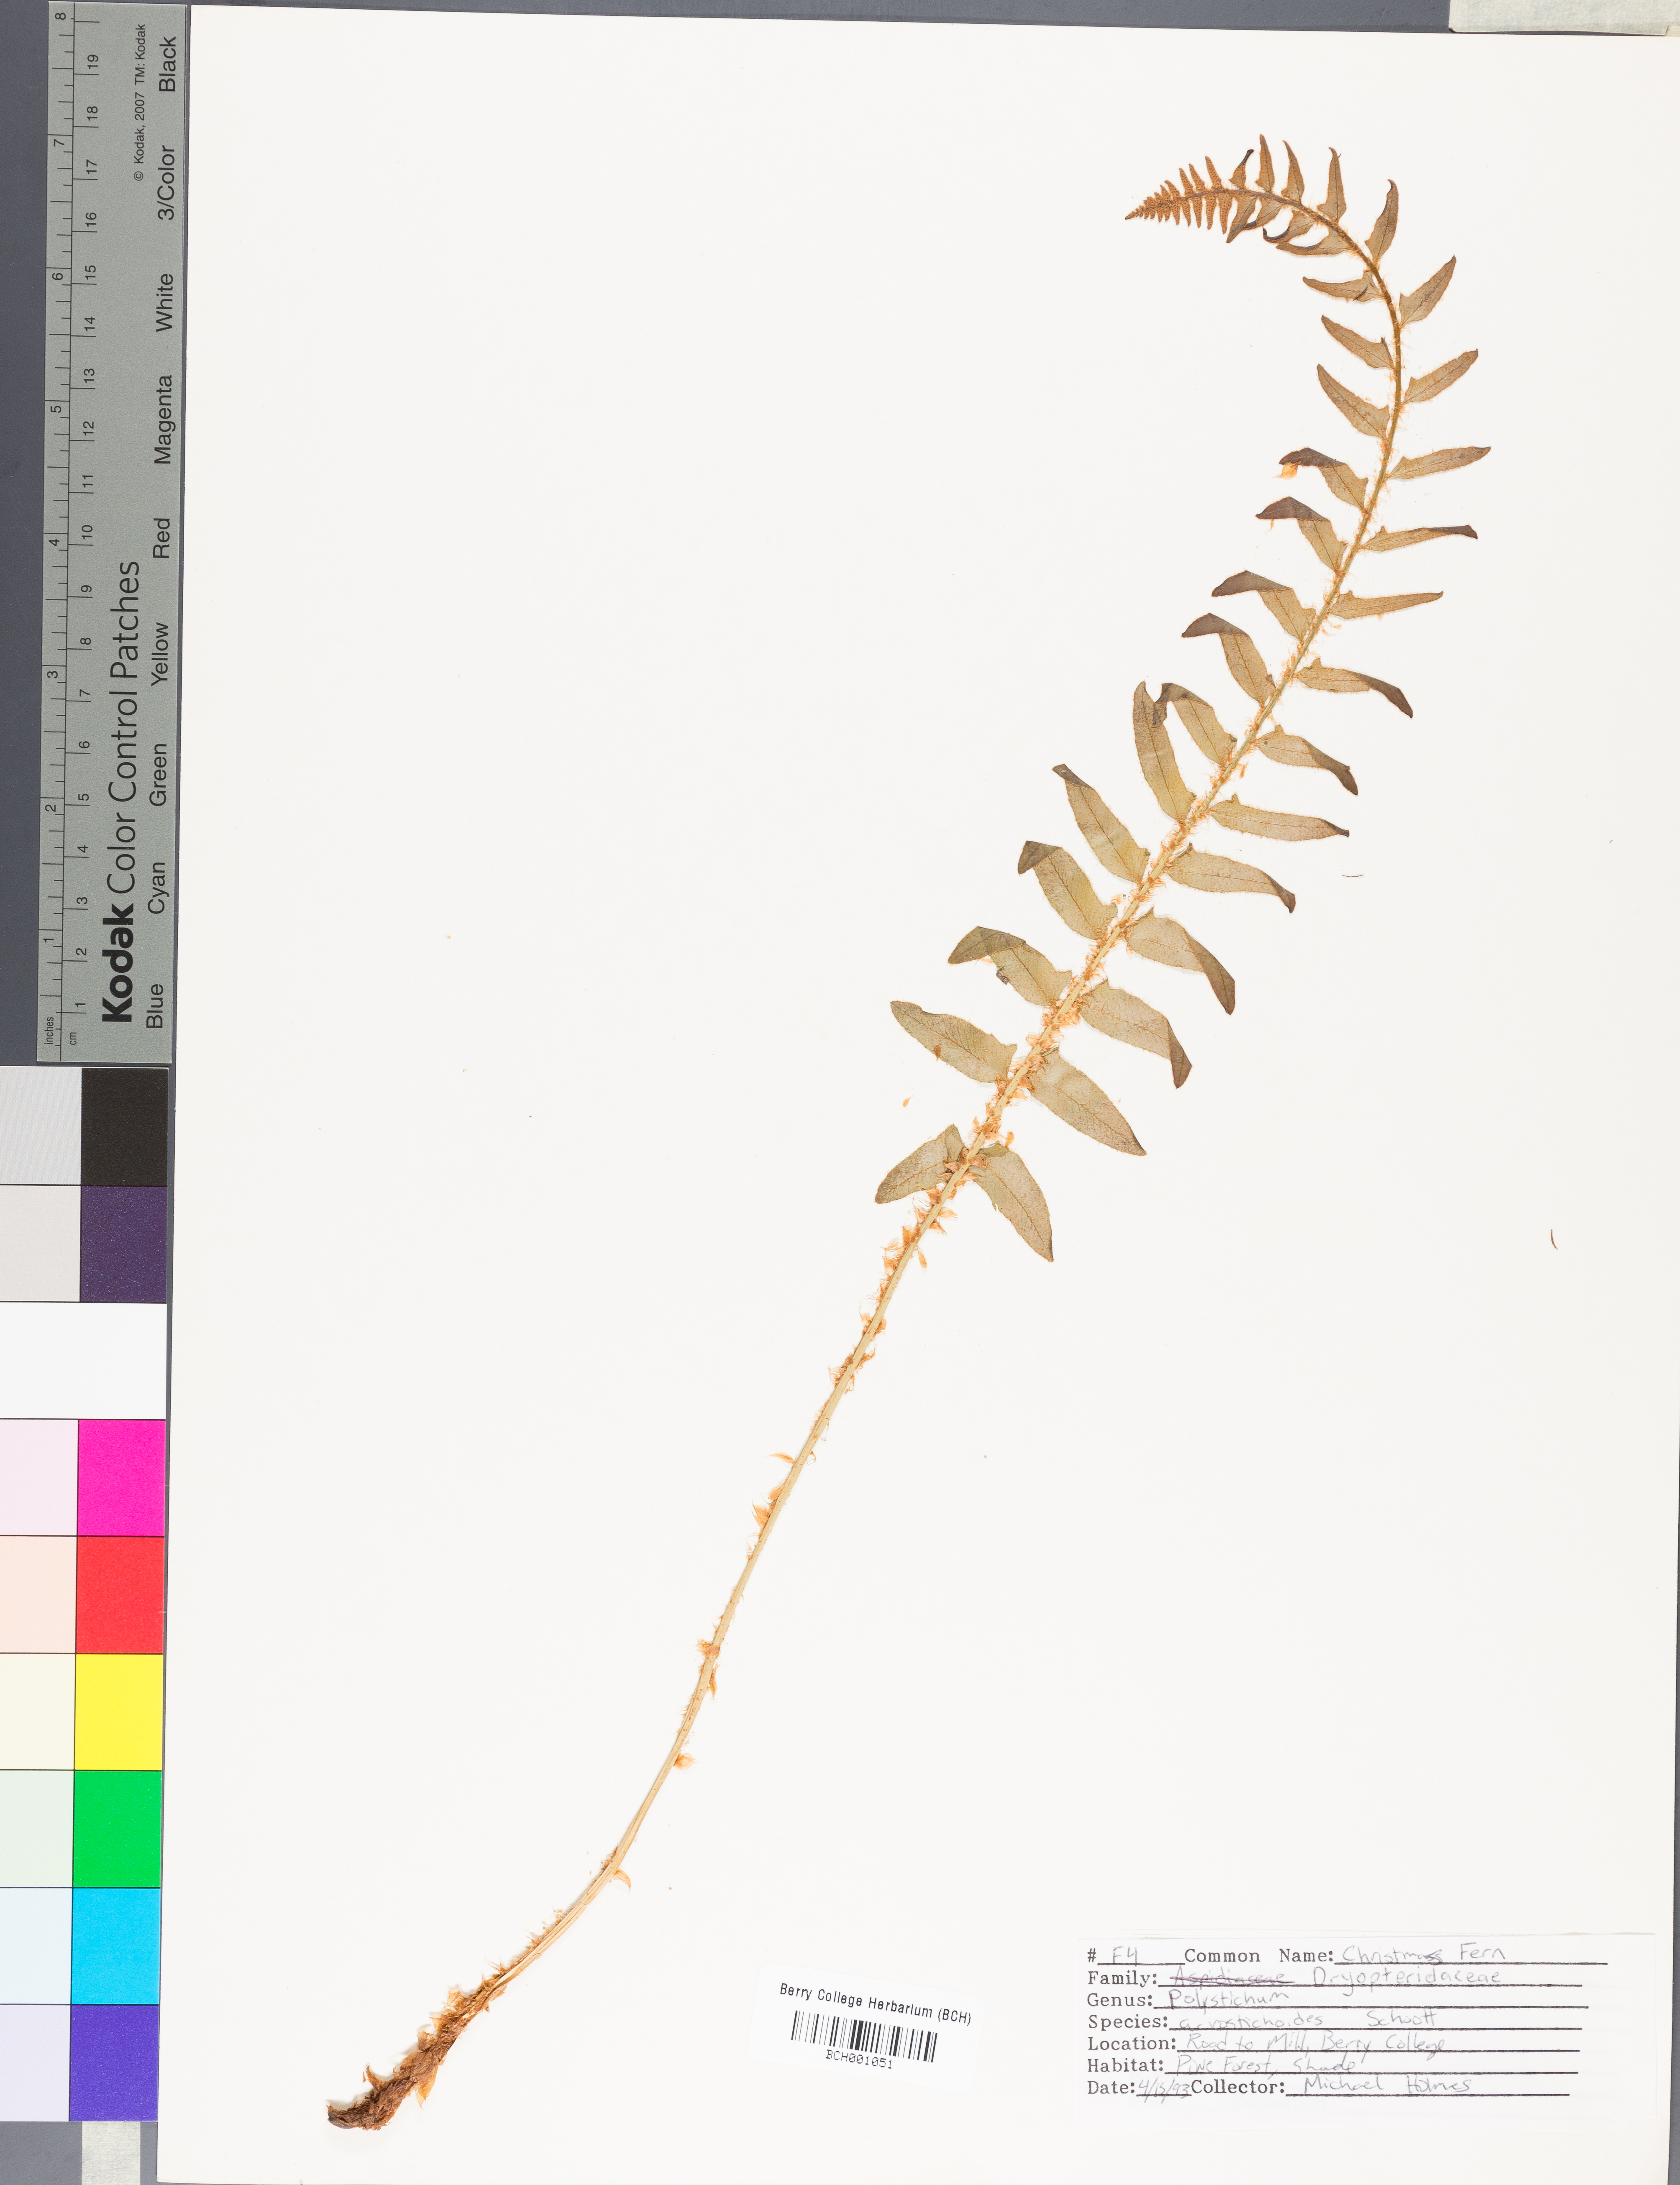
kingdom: Plantae
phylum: Tracheophyta
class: Polypodiopsida
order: Polypodiales
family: Dryopteridaceae
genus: Polystichum
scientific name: Polystichum acrostichoides
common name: Christmas fern
